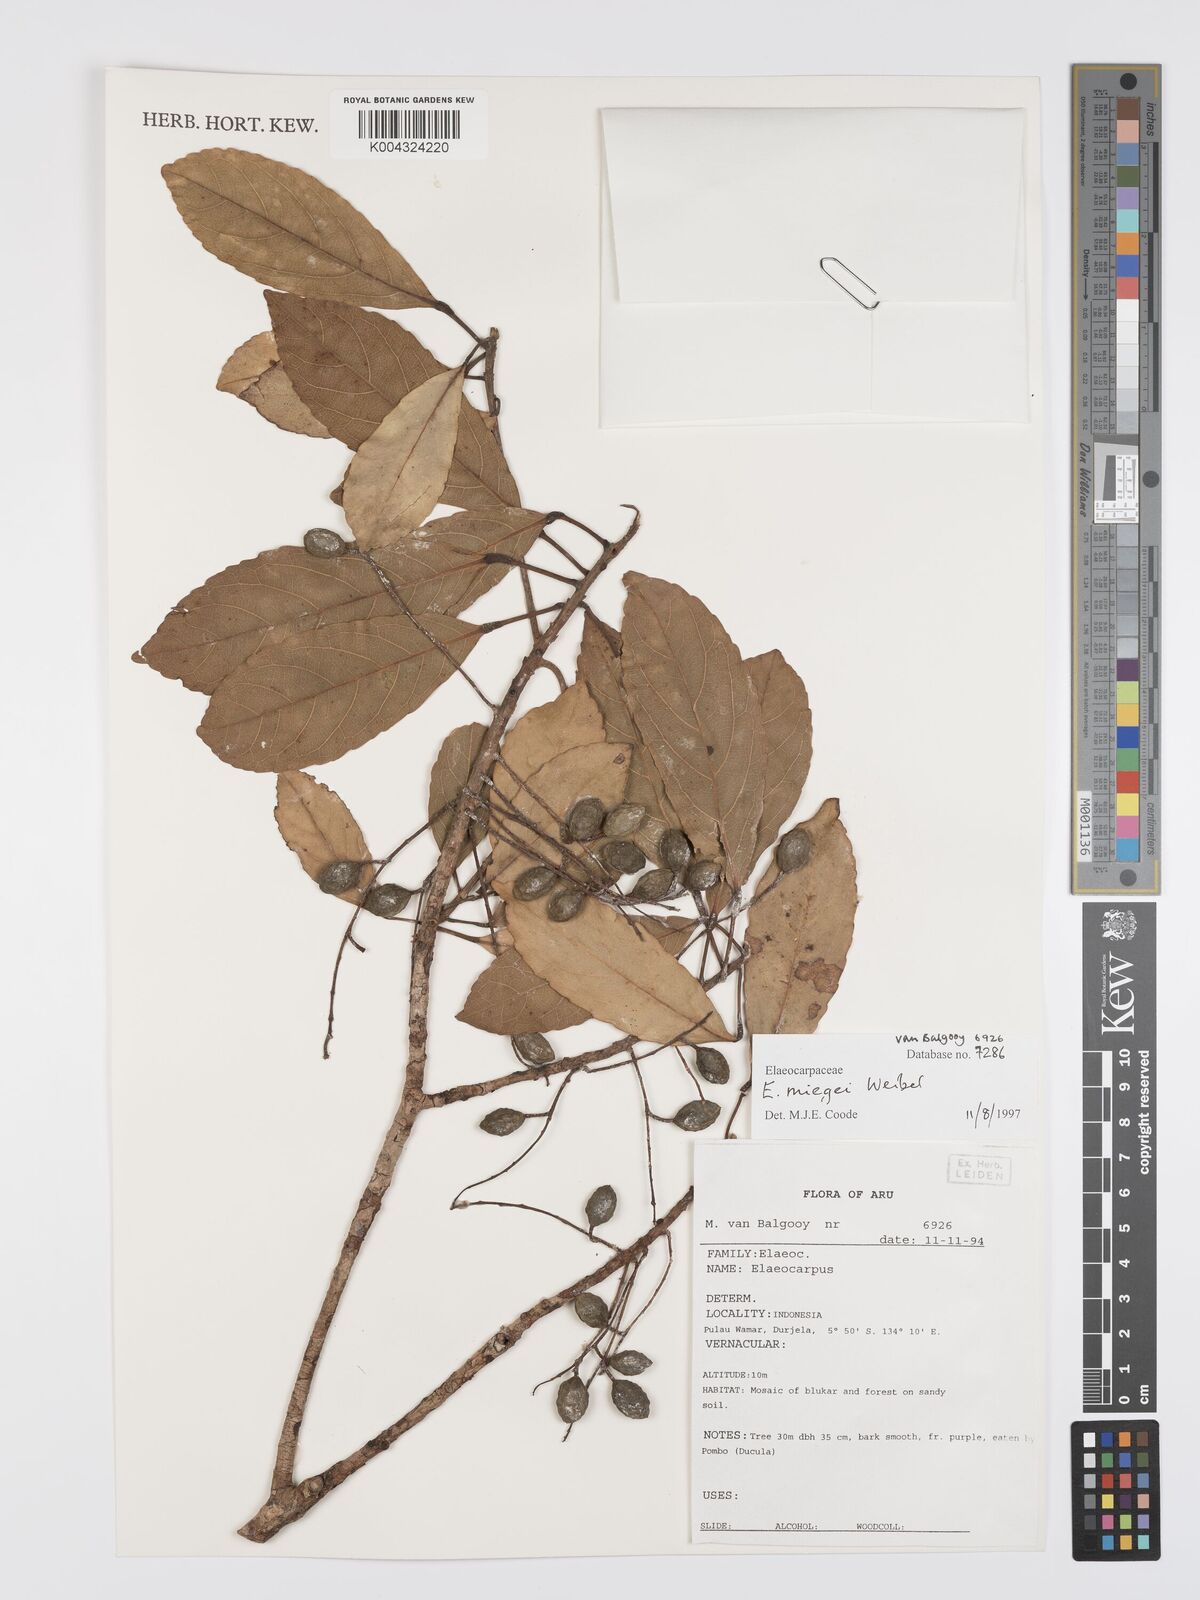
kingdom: Plantae
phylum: Tracheophyta
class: Magnoliopsida
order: Oxalidales
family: Elaeocarpaceae
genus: Elaeocarpus
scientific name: Elaeocarpus miegei
